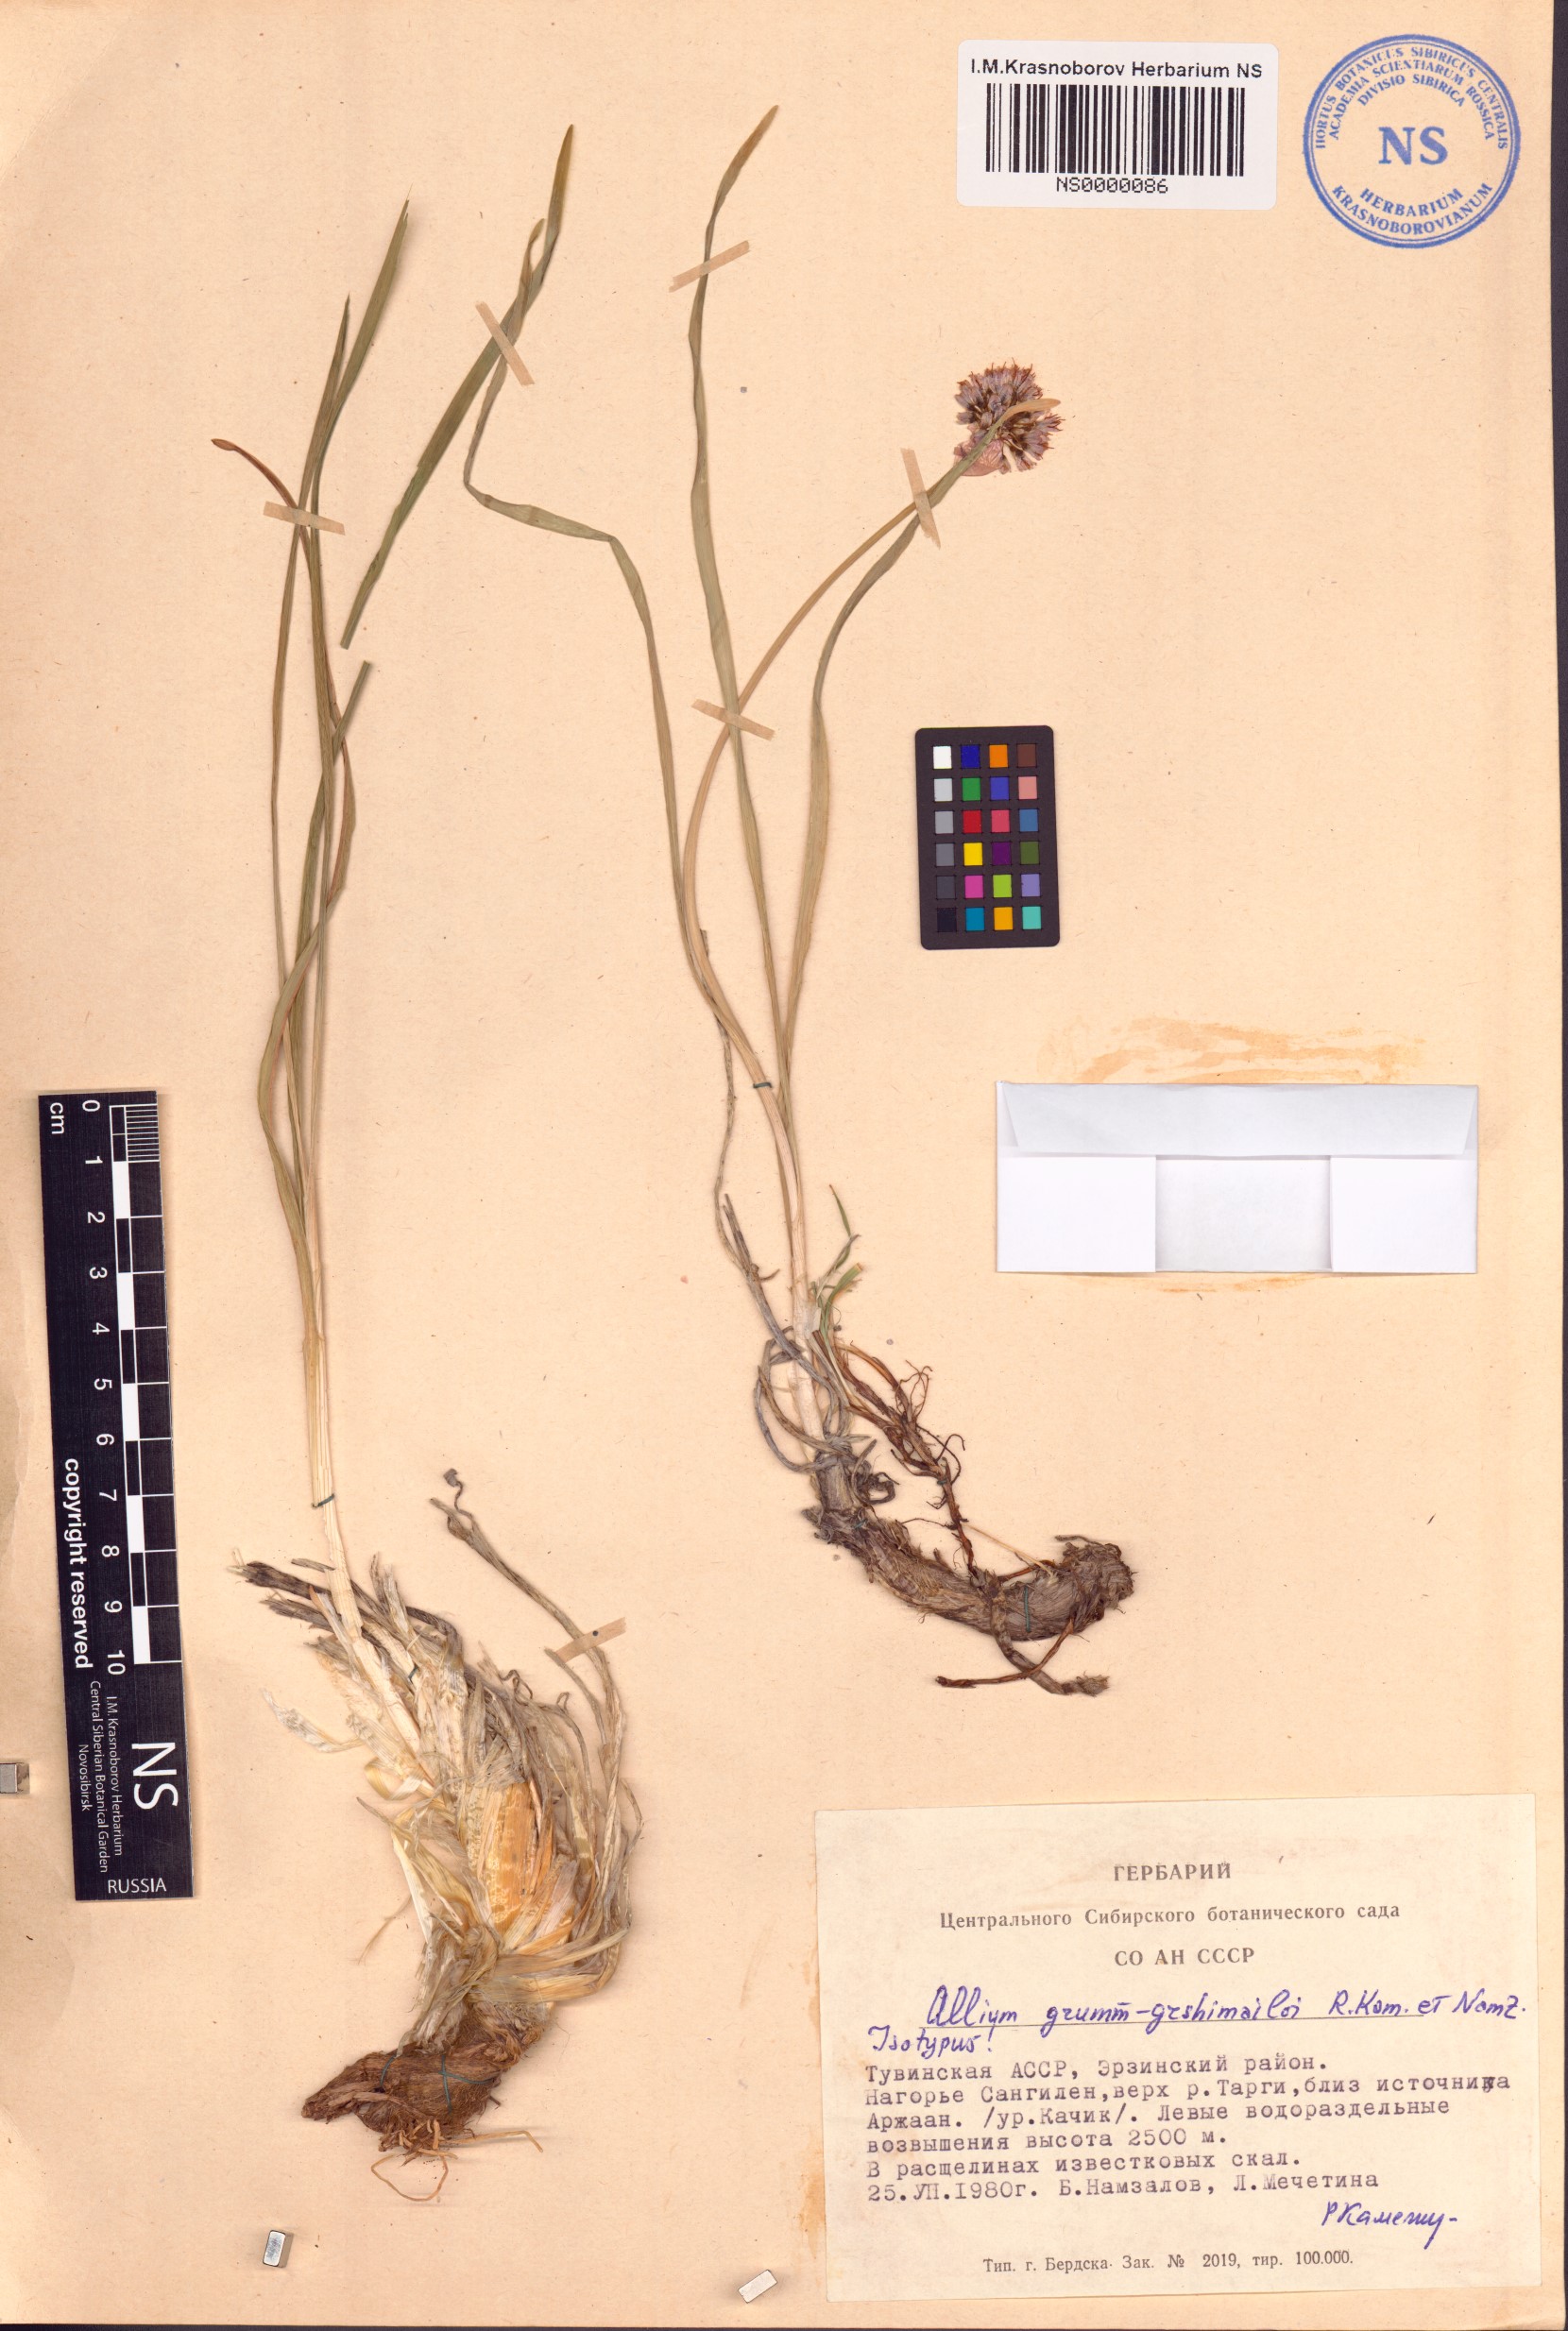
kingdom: Plantae
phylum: Tracheophyta
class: Liliopsida
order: Asparagales
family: Amaryllidaceae
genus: Allium
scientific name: Allium grumm-grshimailoi
